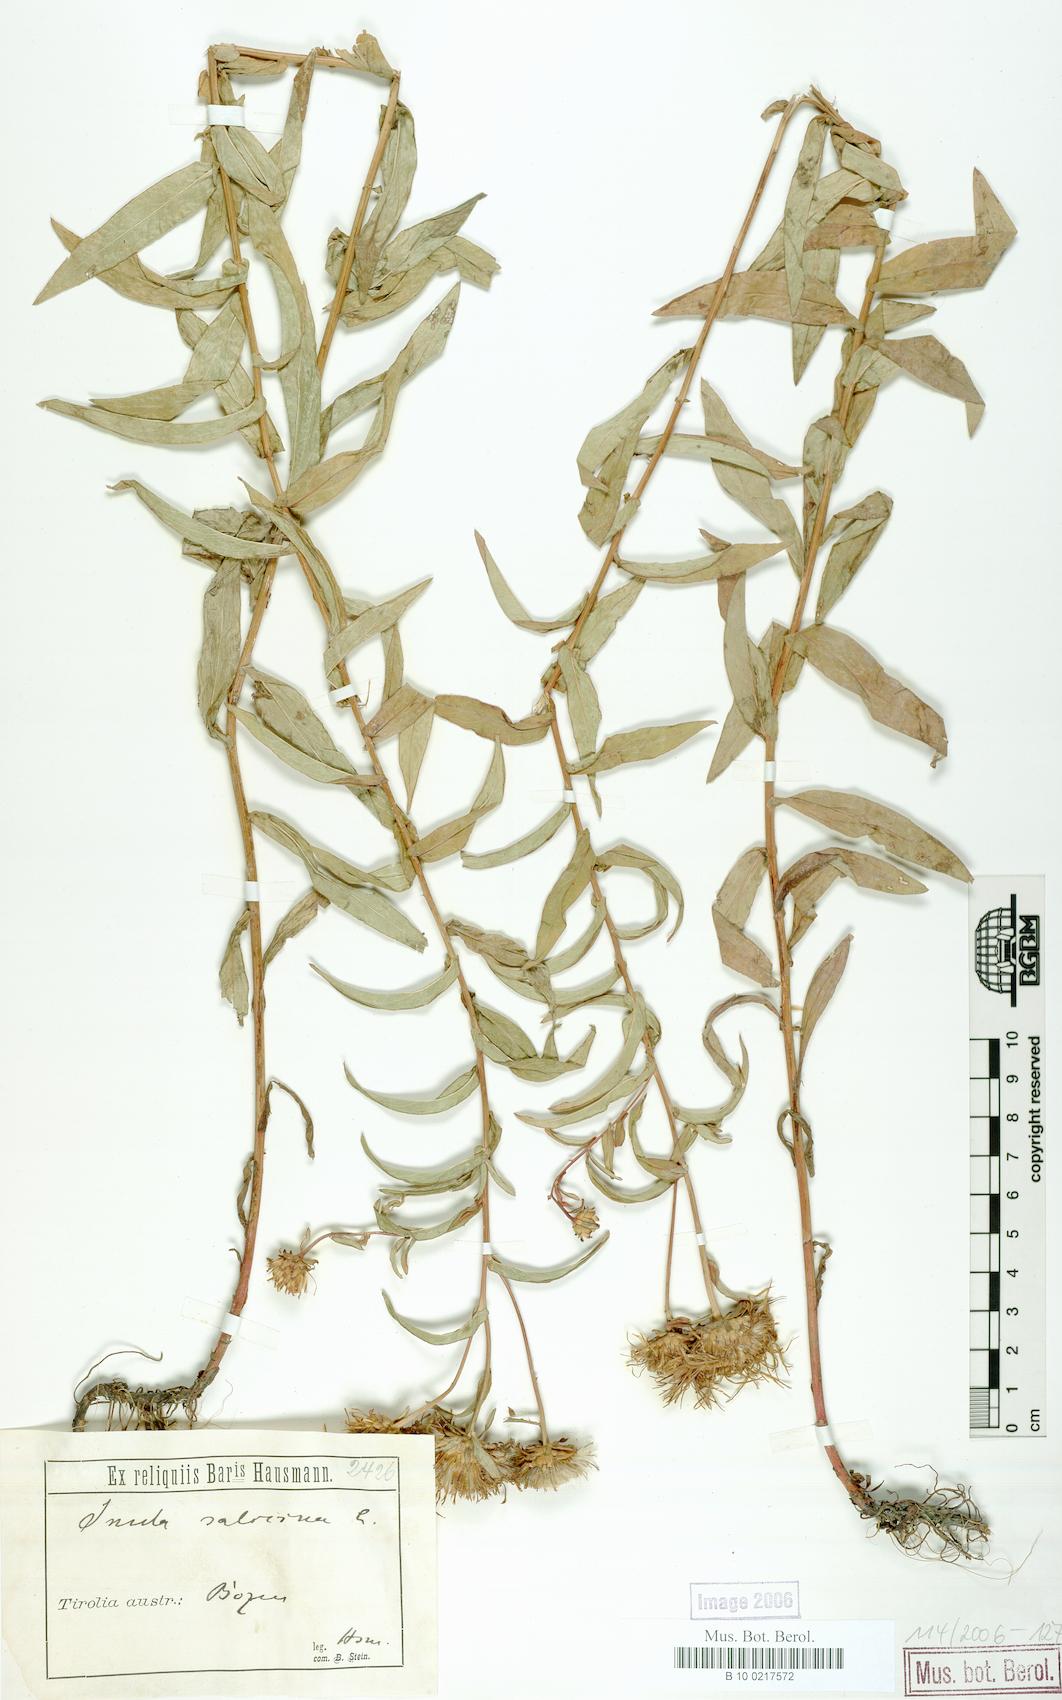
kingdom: Plantae
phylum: Tracheophyta
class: Magnoliopsida
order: Asterales
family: Asteraceae
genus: Pentanema
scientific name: Pentanema salicinum
